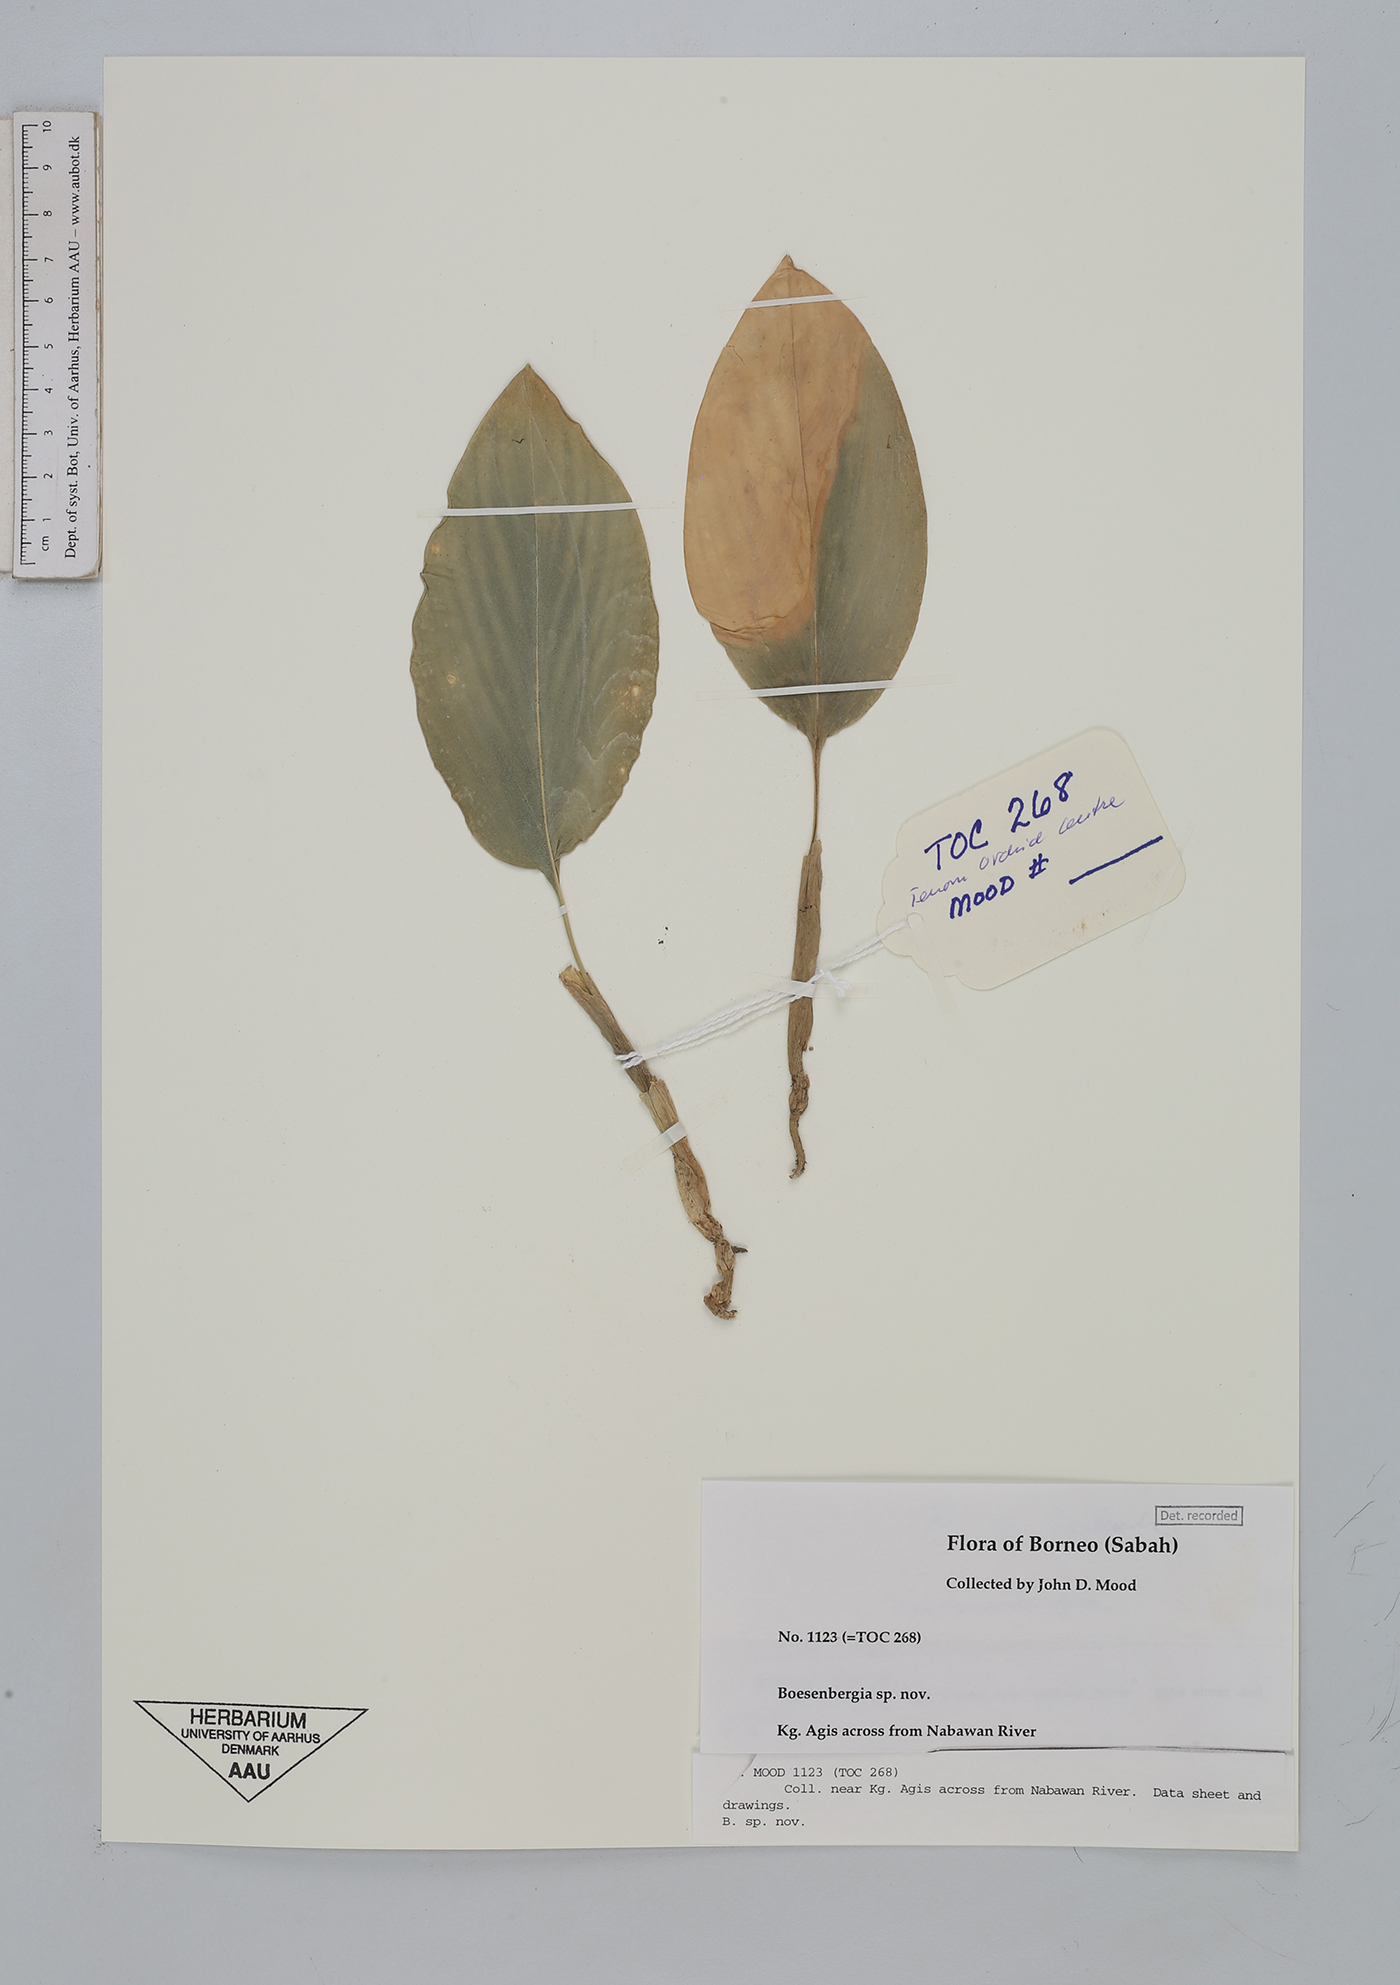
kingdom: Plantae
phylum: Tracheophyta
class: Liliopsida
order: Zingiberales
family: Zingiberaceae
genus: Boesenbergia
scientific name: Boesenbergia
